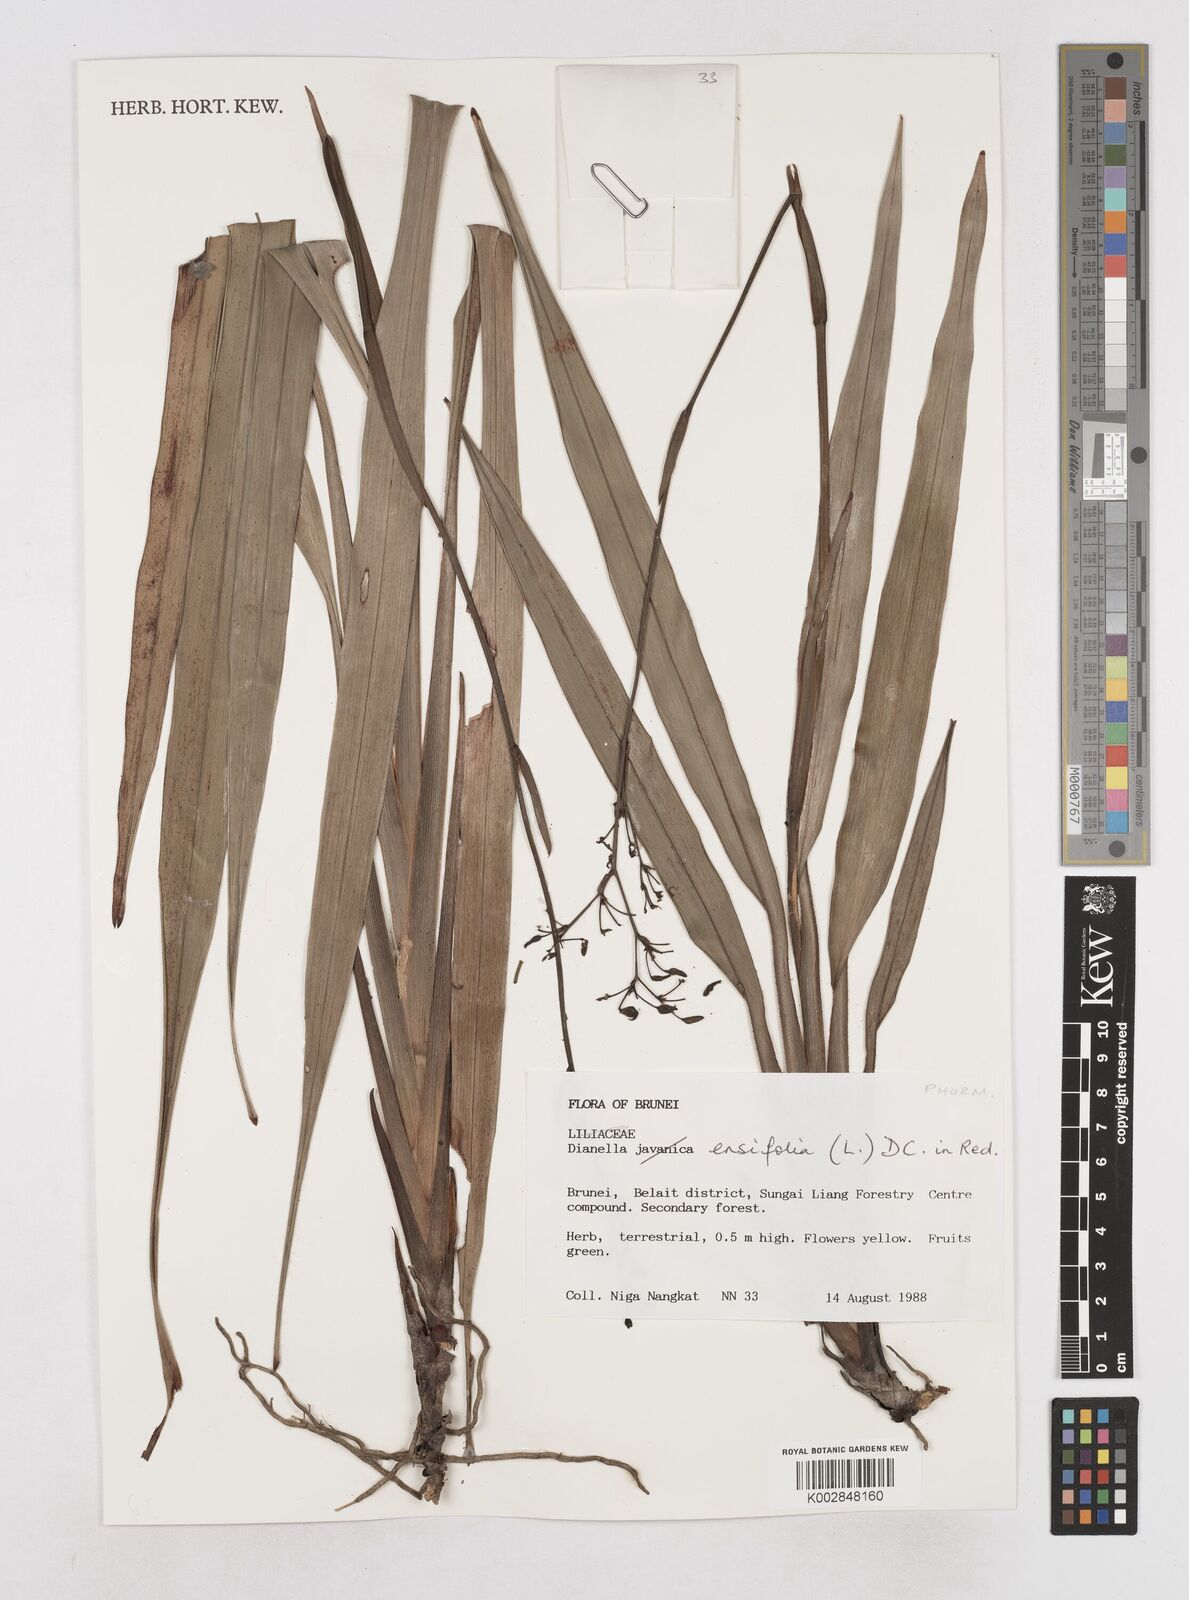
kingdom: Plantae
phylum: Tracheophyta
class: Liliopsida
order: Asparagales
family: Asphodelaceae
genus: Dianella
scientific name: Dianella ensifolia
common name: New zealand lilyplant
